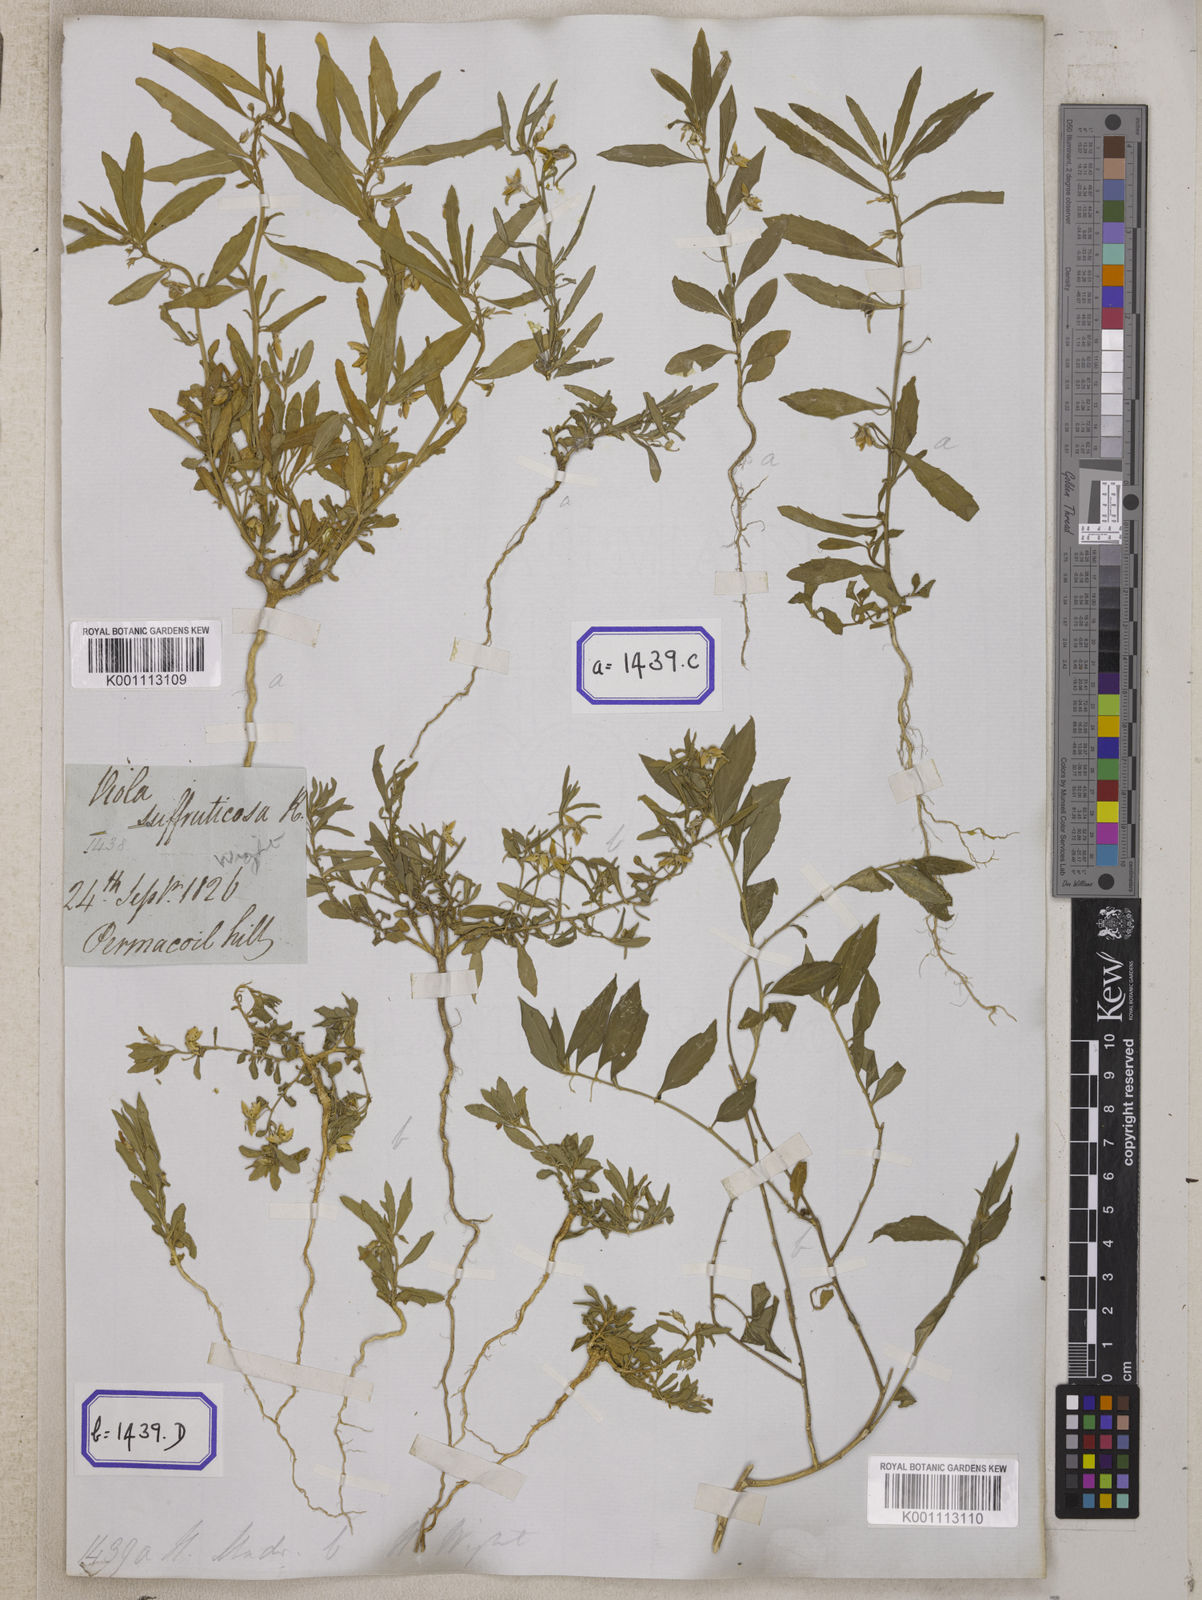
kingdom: Plantae
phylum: Tracheophyta
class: Magnoliopsida
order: Malpighiales
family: Violaceae
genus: Pigea
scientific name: Pigea enneasperma
